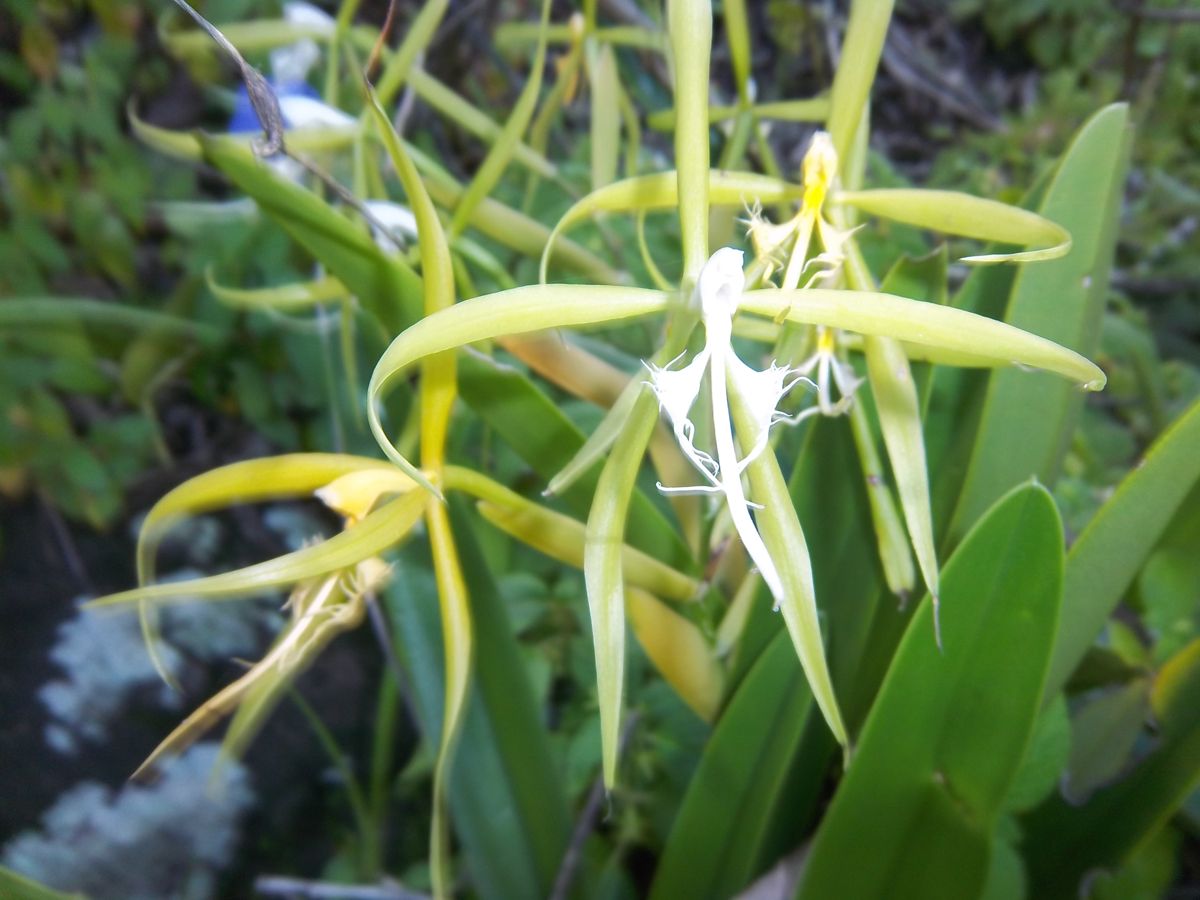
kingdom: Plantae
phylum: Tracheophyta
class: Liliopsida
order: Asparagales
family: Orchidaceae
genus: Epidendrum
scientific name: Epidendrum ciliare
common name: Eyelash orchid
